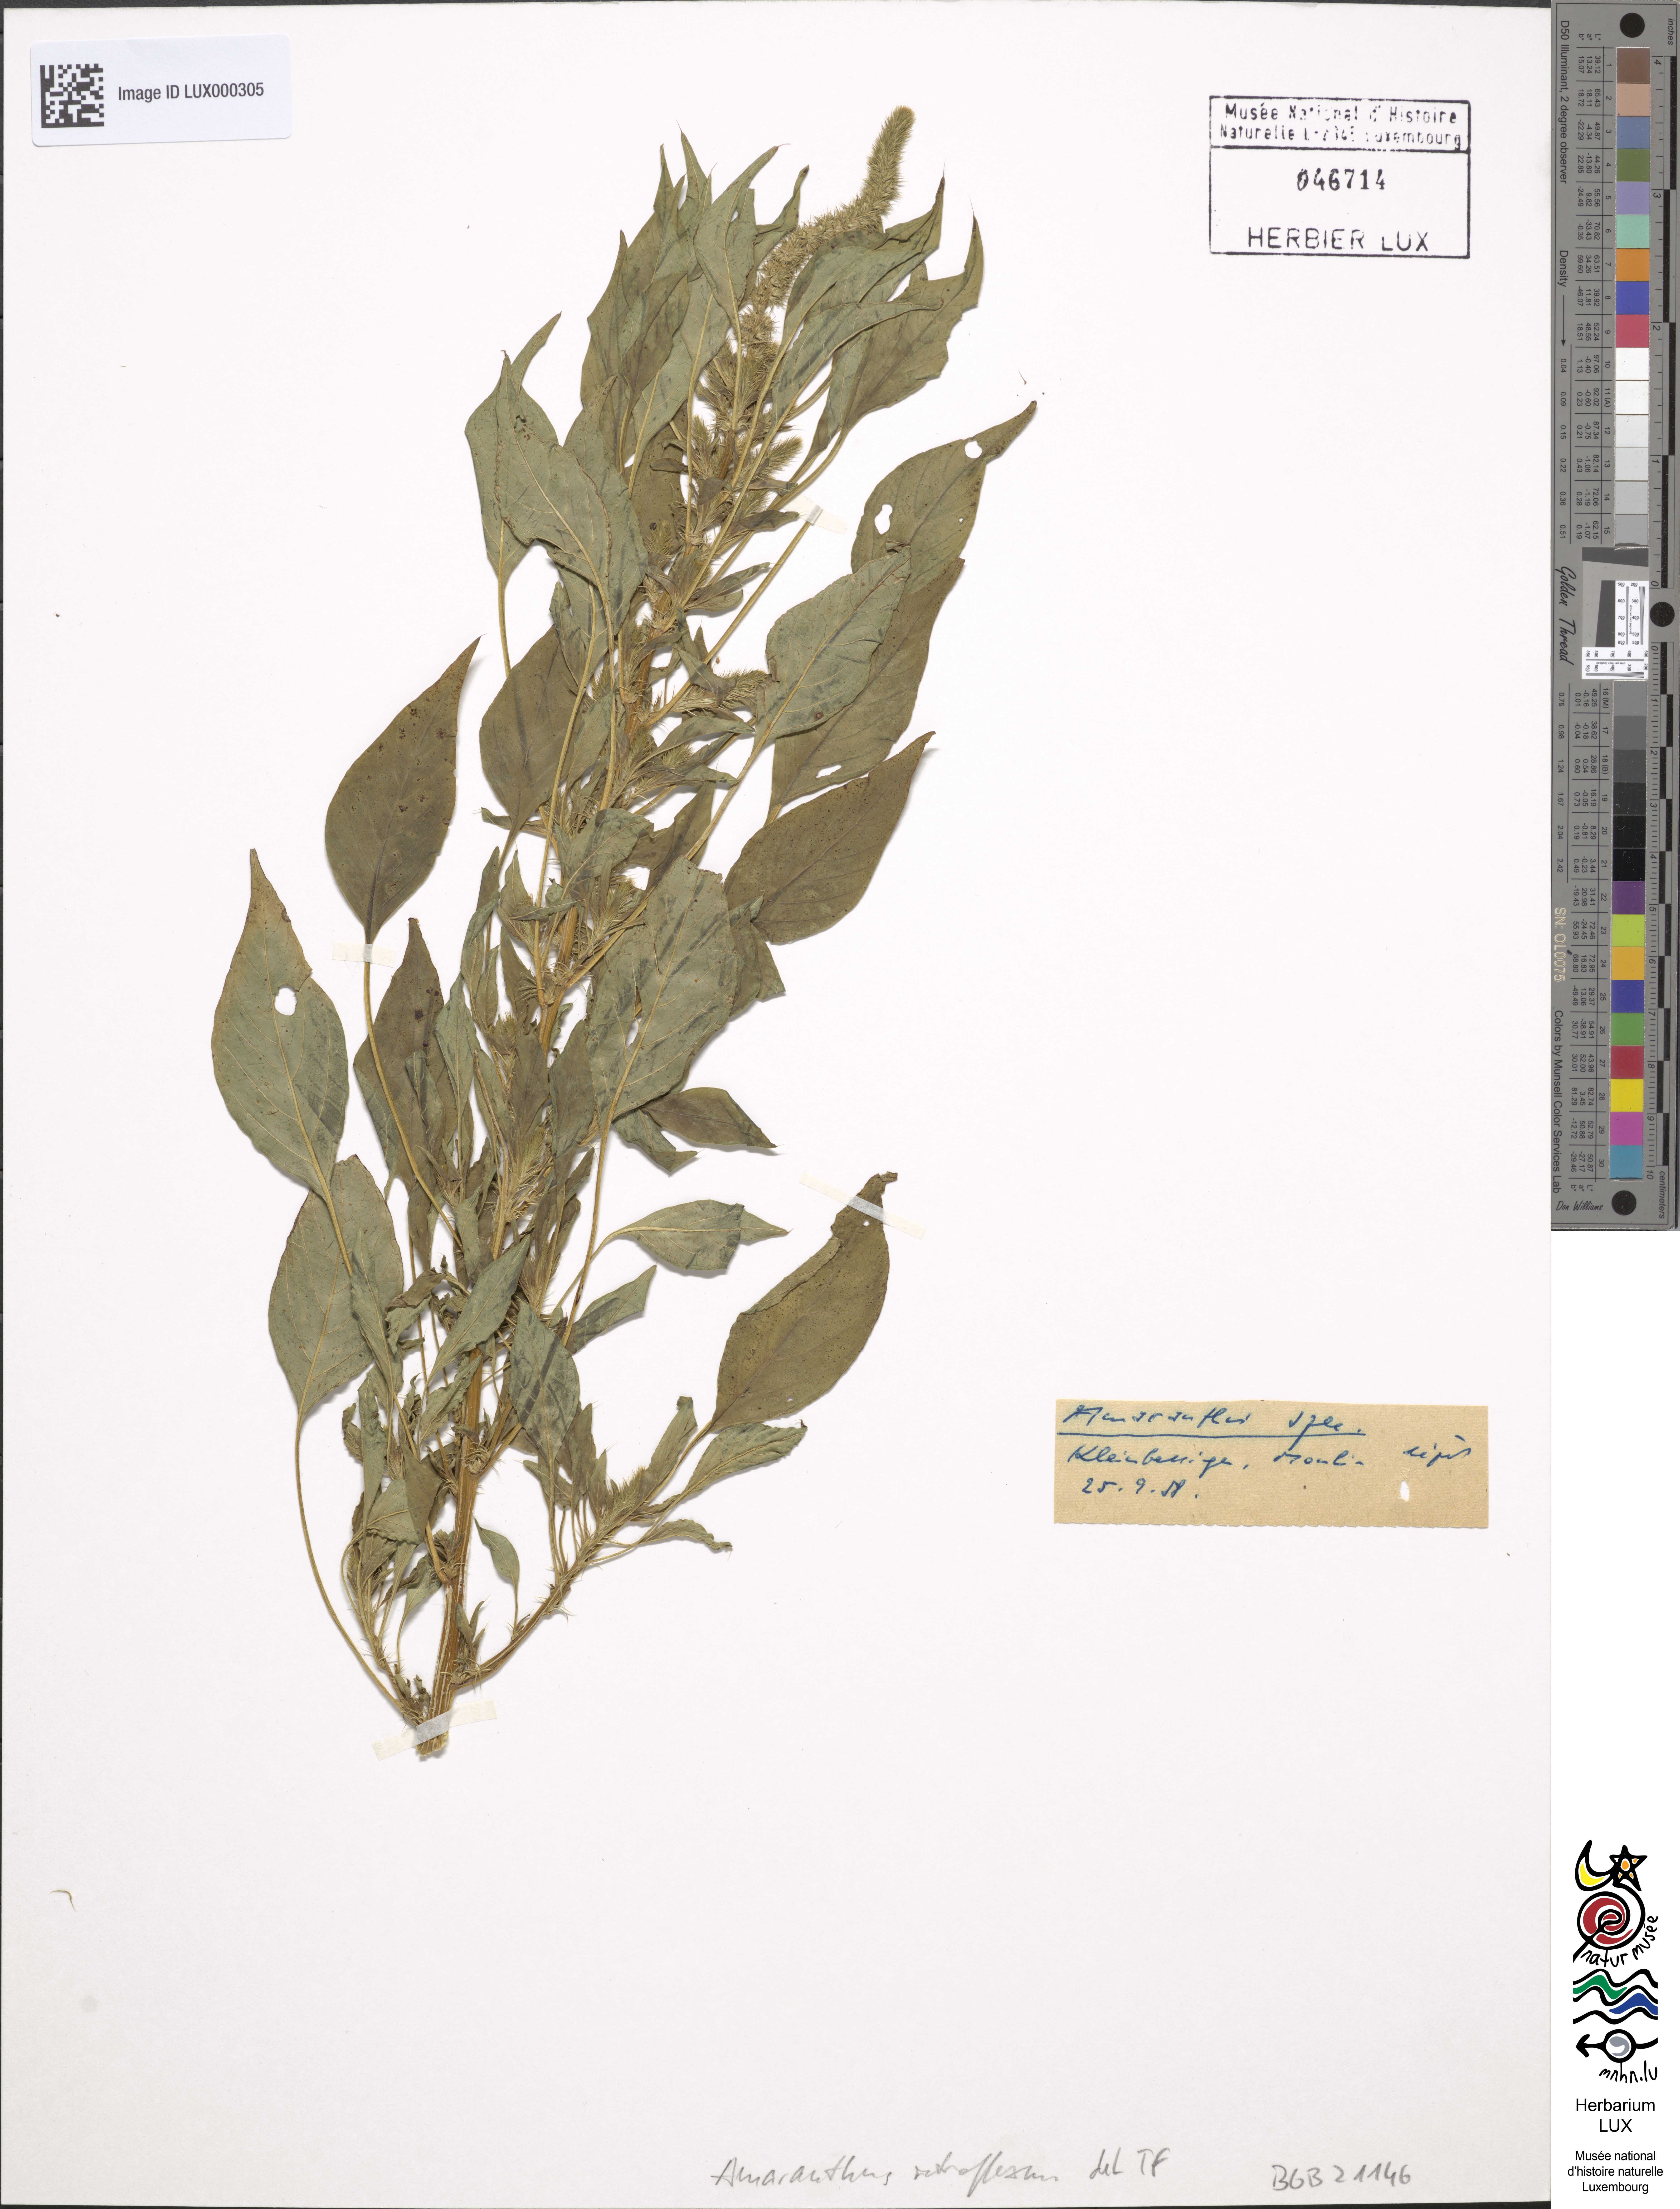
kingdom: Plantae
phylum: Tracheophyta
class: Magnoliopsida
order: Caryophyllales
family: Amaranthaceae
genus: Amaranthus
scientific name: Amaranthus retroflexus
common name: Redroot amaranth
